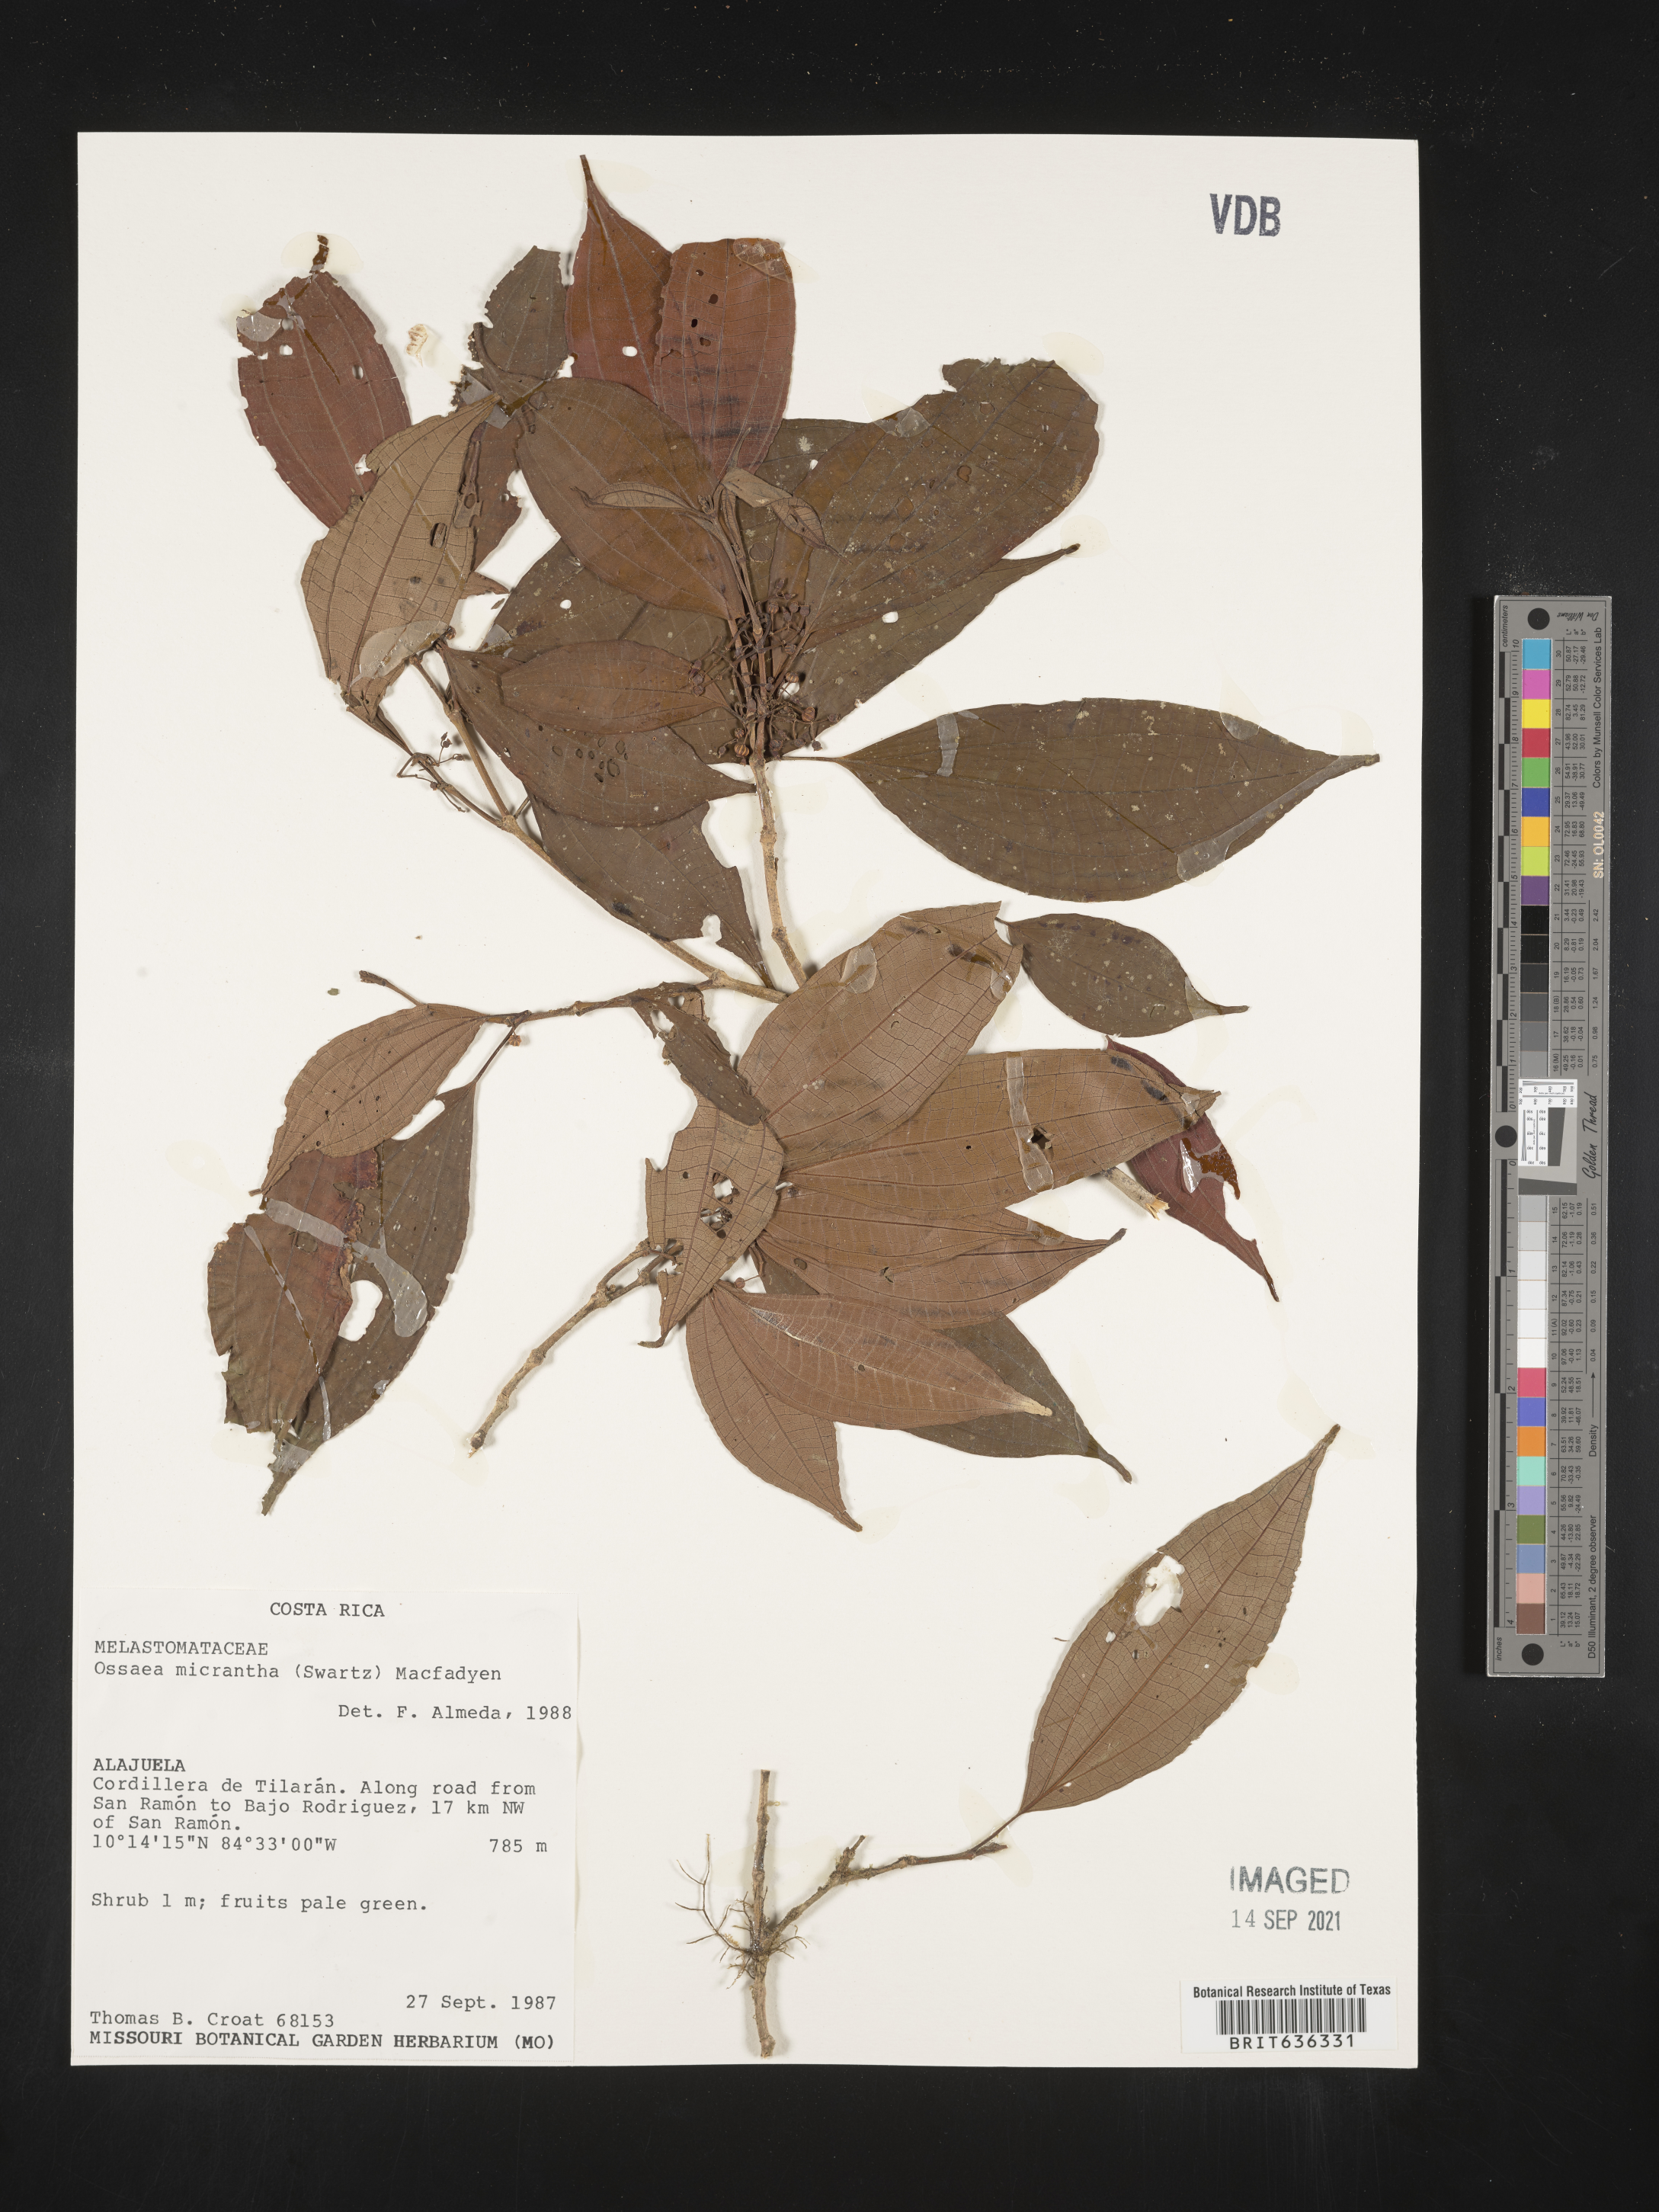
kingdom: Plantae
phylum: Tracheophyta
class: Magnoliopsida
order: Myrtales
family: Melastomataceae
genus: Ossaea
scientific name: Ossaea
